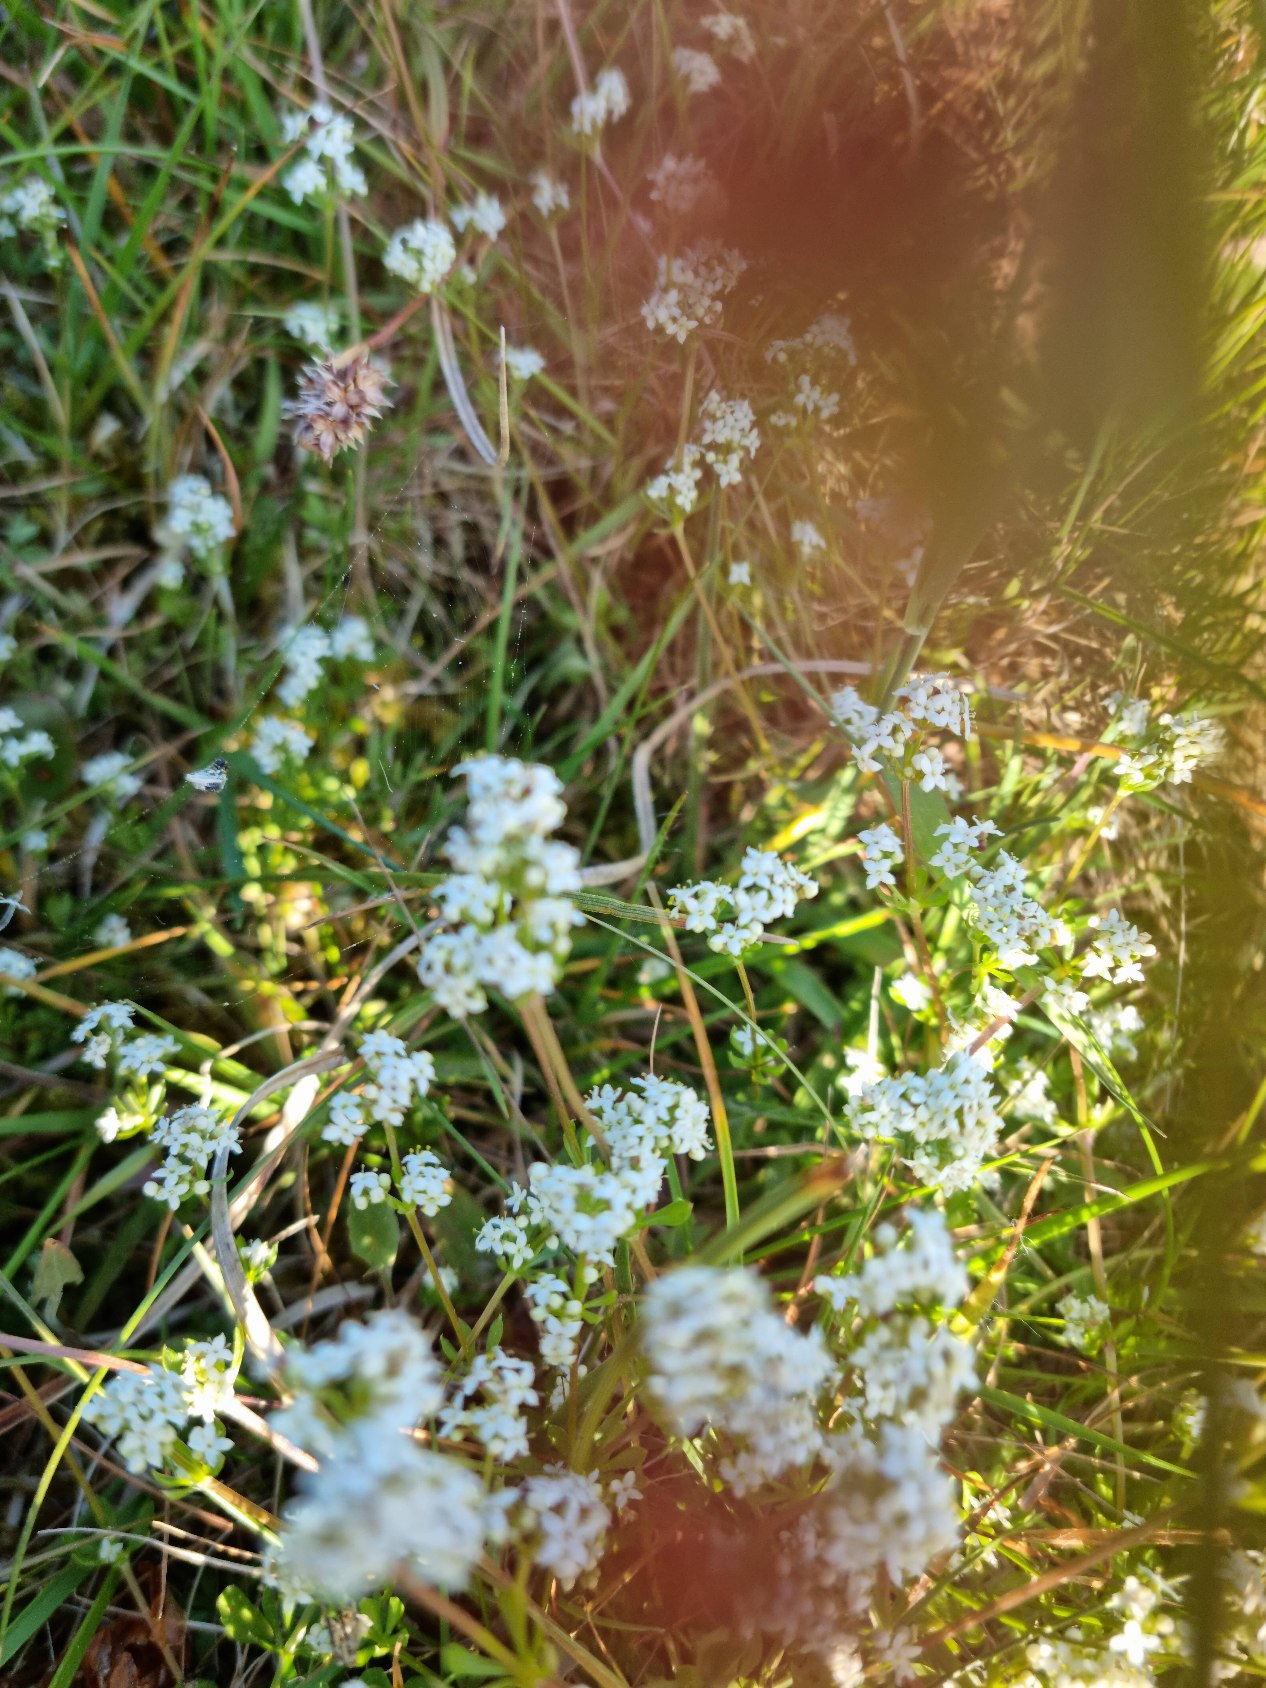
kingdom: Plantae
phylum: Tracheophyta
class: Magnoliopsida
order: Gentianales
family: Rubiaceae
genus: Galium
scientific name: Galium saxatile
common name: Lyng-snerre
